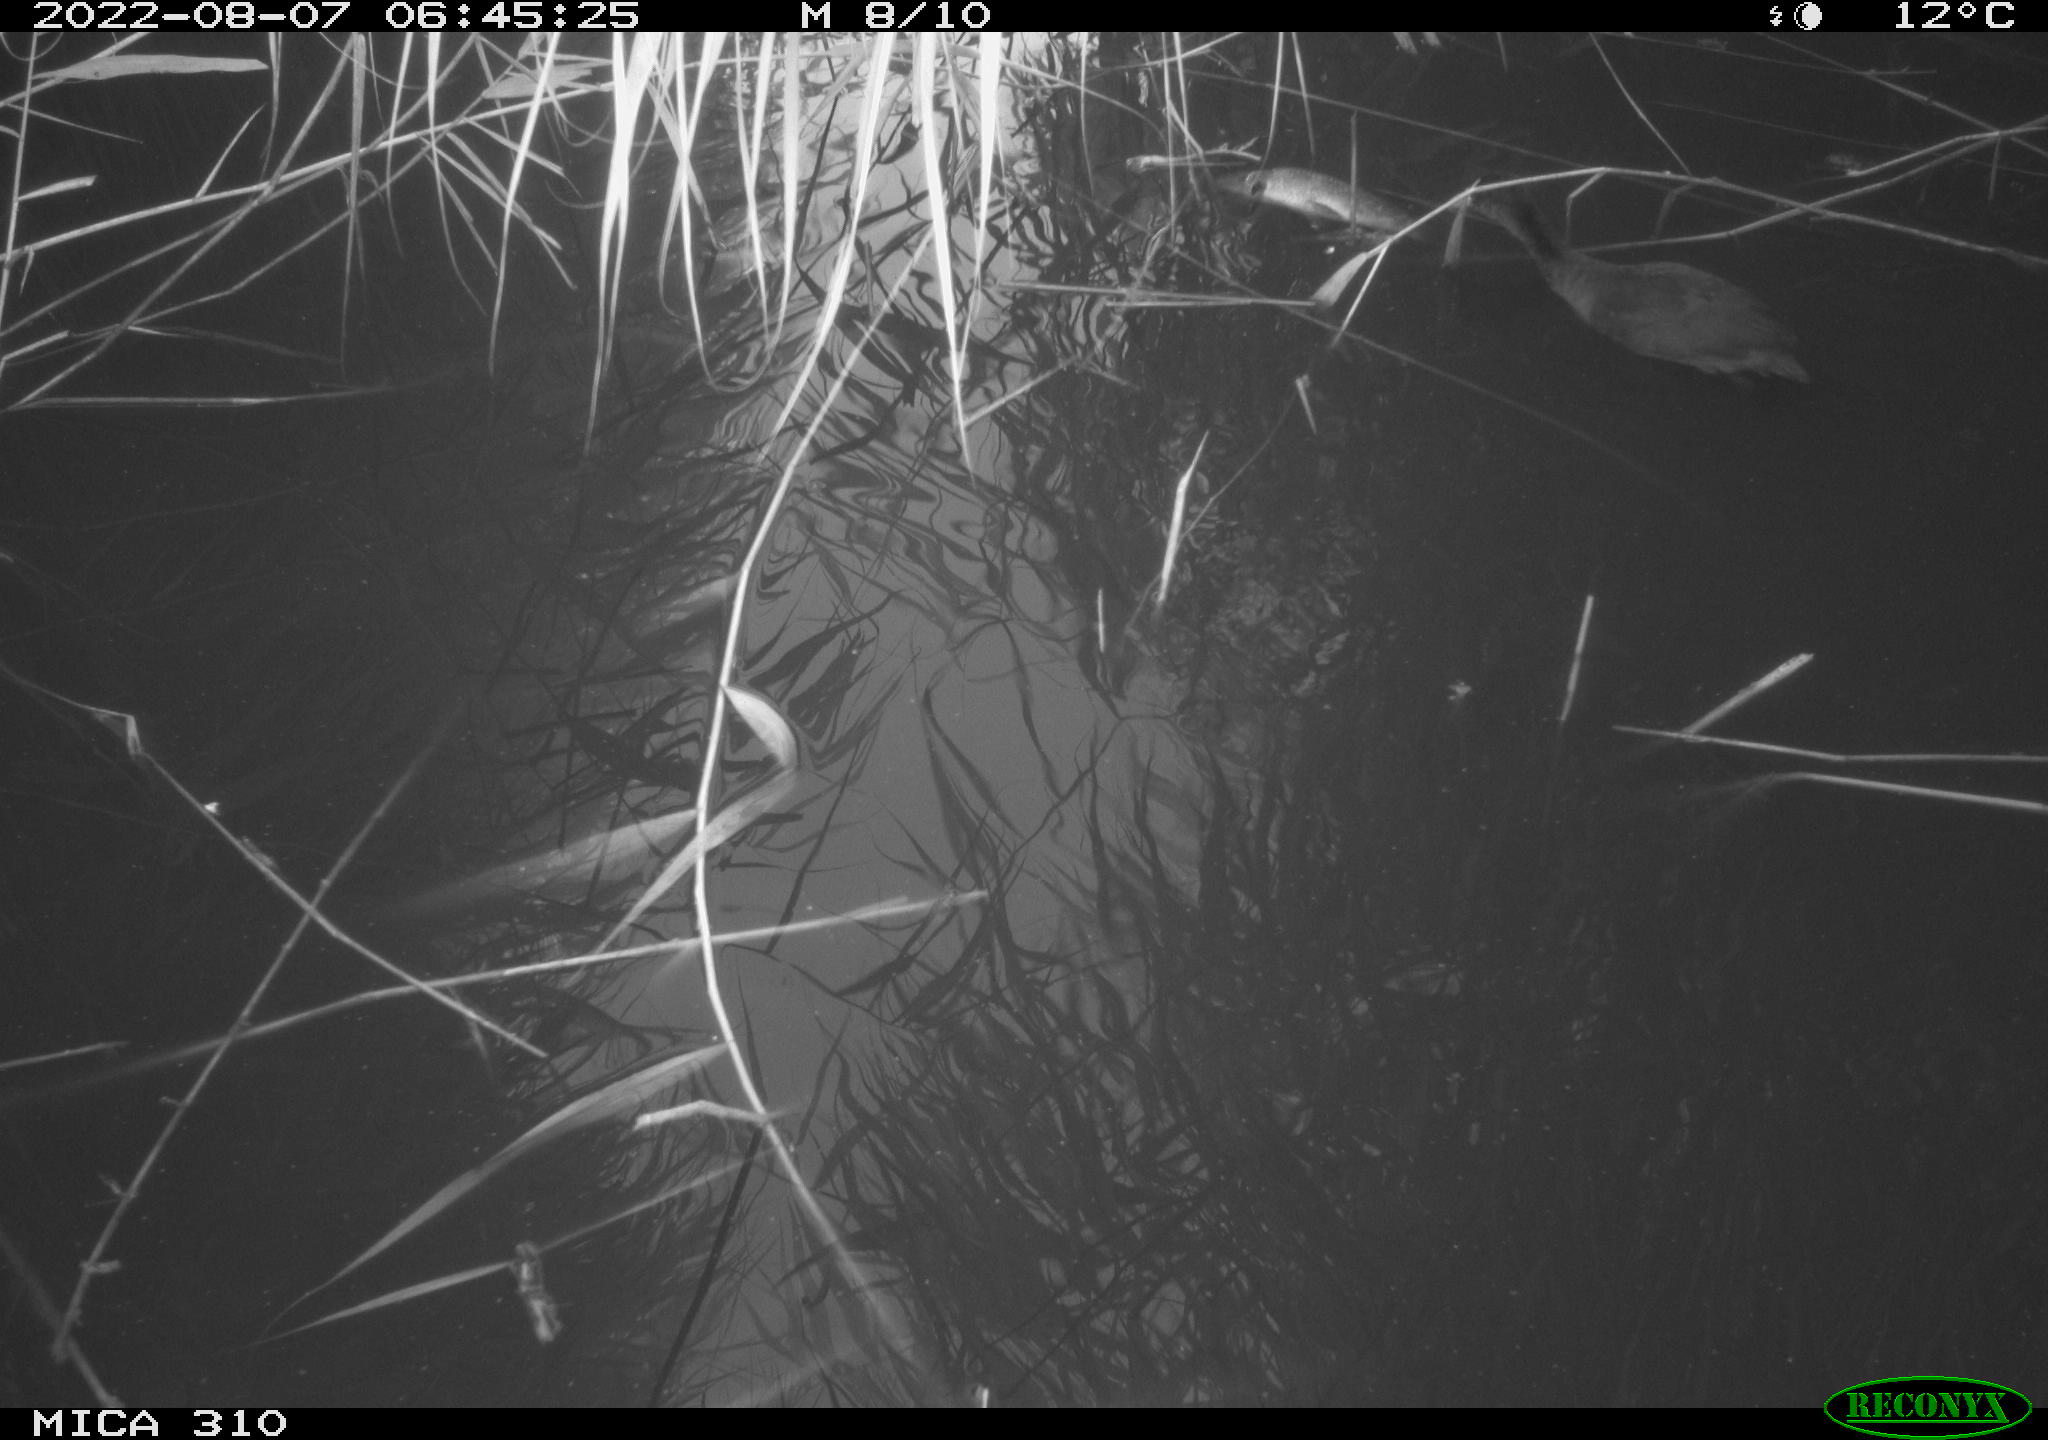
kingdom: Animalia
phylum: Chordata
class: Aves
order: Gruiformes
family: Rallidae
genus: Fulica
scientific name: Fulica atra
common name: Eurasian coot
